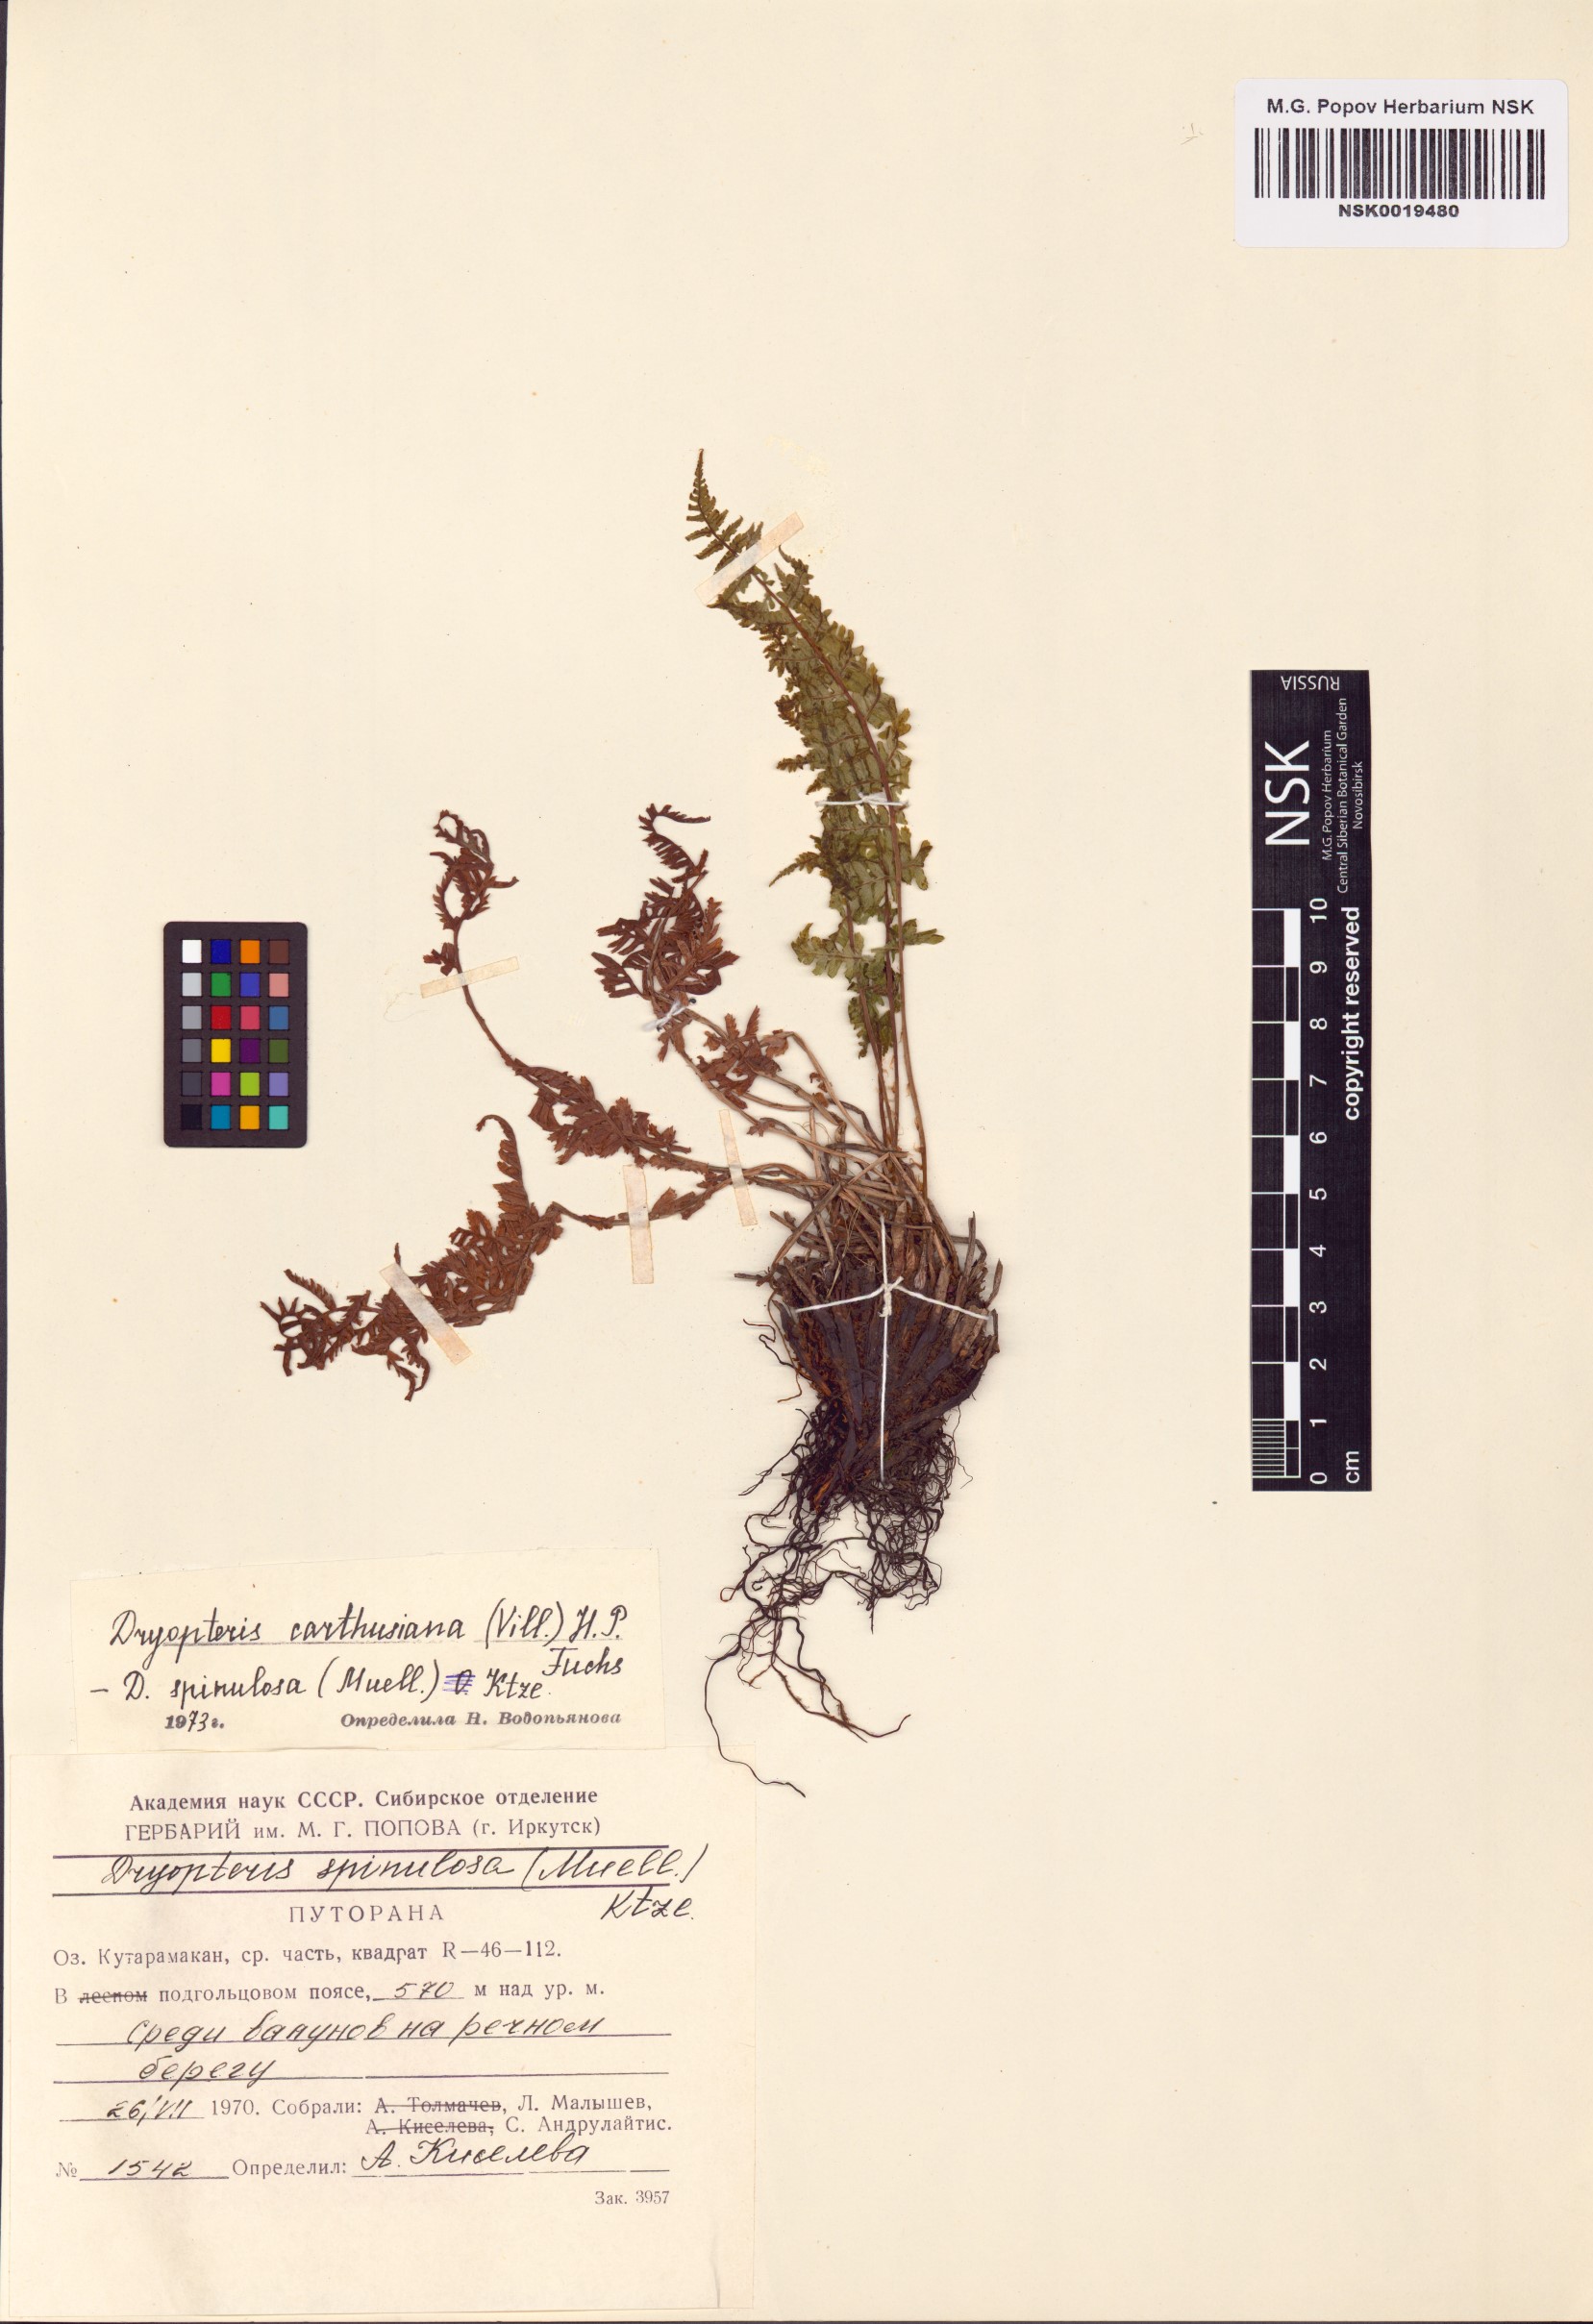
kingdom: Plantae
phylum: Tracheophyta
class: Polypodiopsida
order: Polypodiales
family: Dryopteridaceae
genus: Dryopteris
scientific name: Dryopteris carthusiana
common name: Narrow buckler-fern
